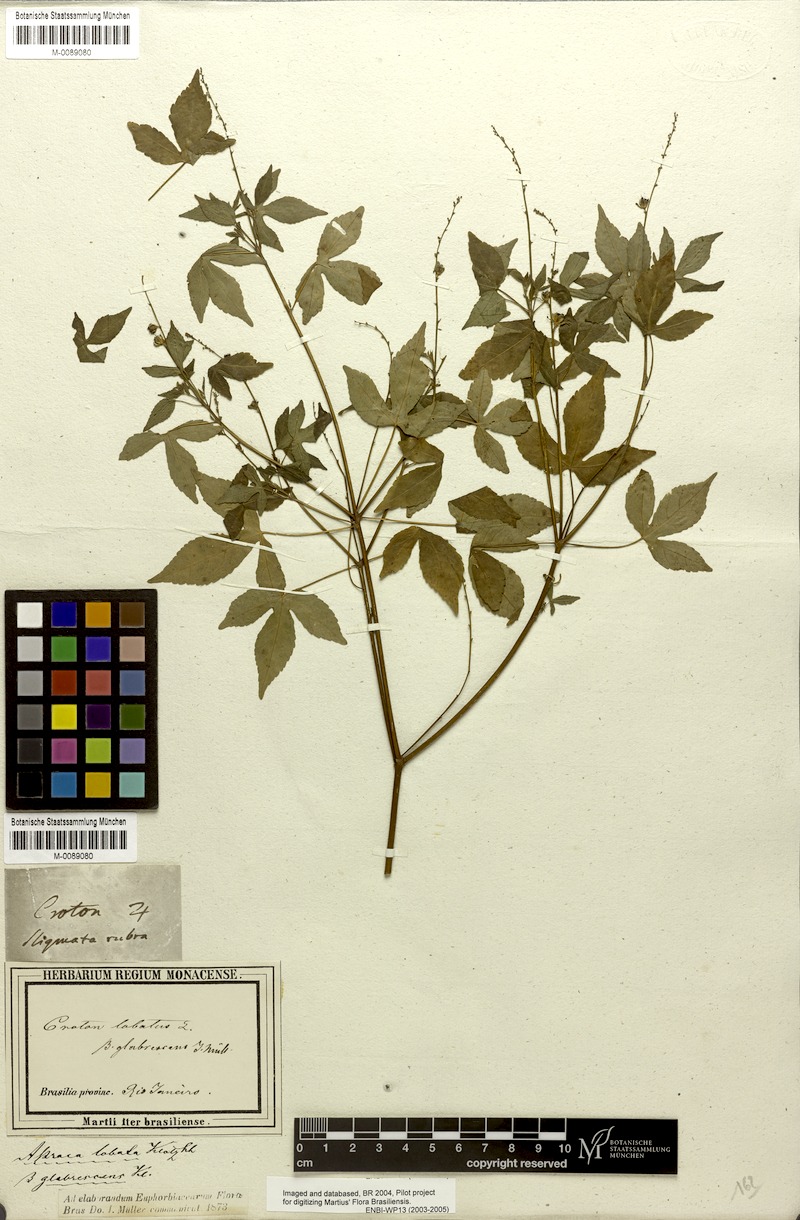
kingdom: Plantae
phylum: Tracheophyta
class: Magnoliopsida
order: Malpighiales
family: Euphorbiaceae
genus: Astraea
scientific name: Astraea gracilis
